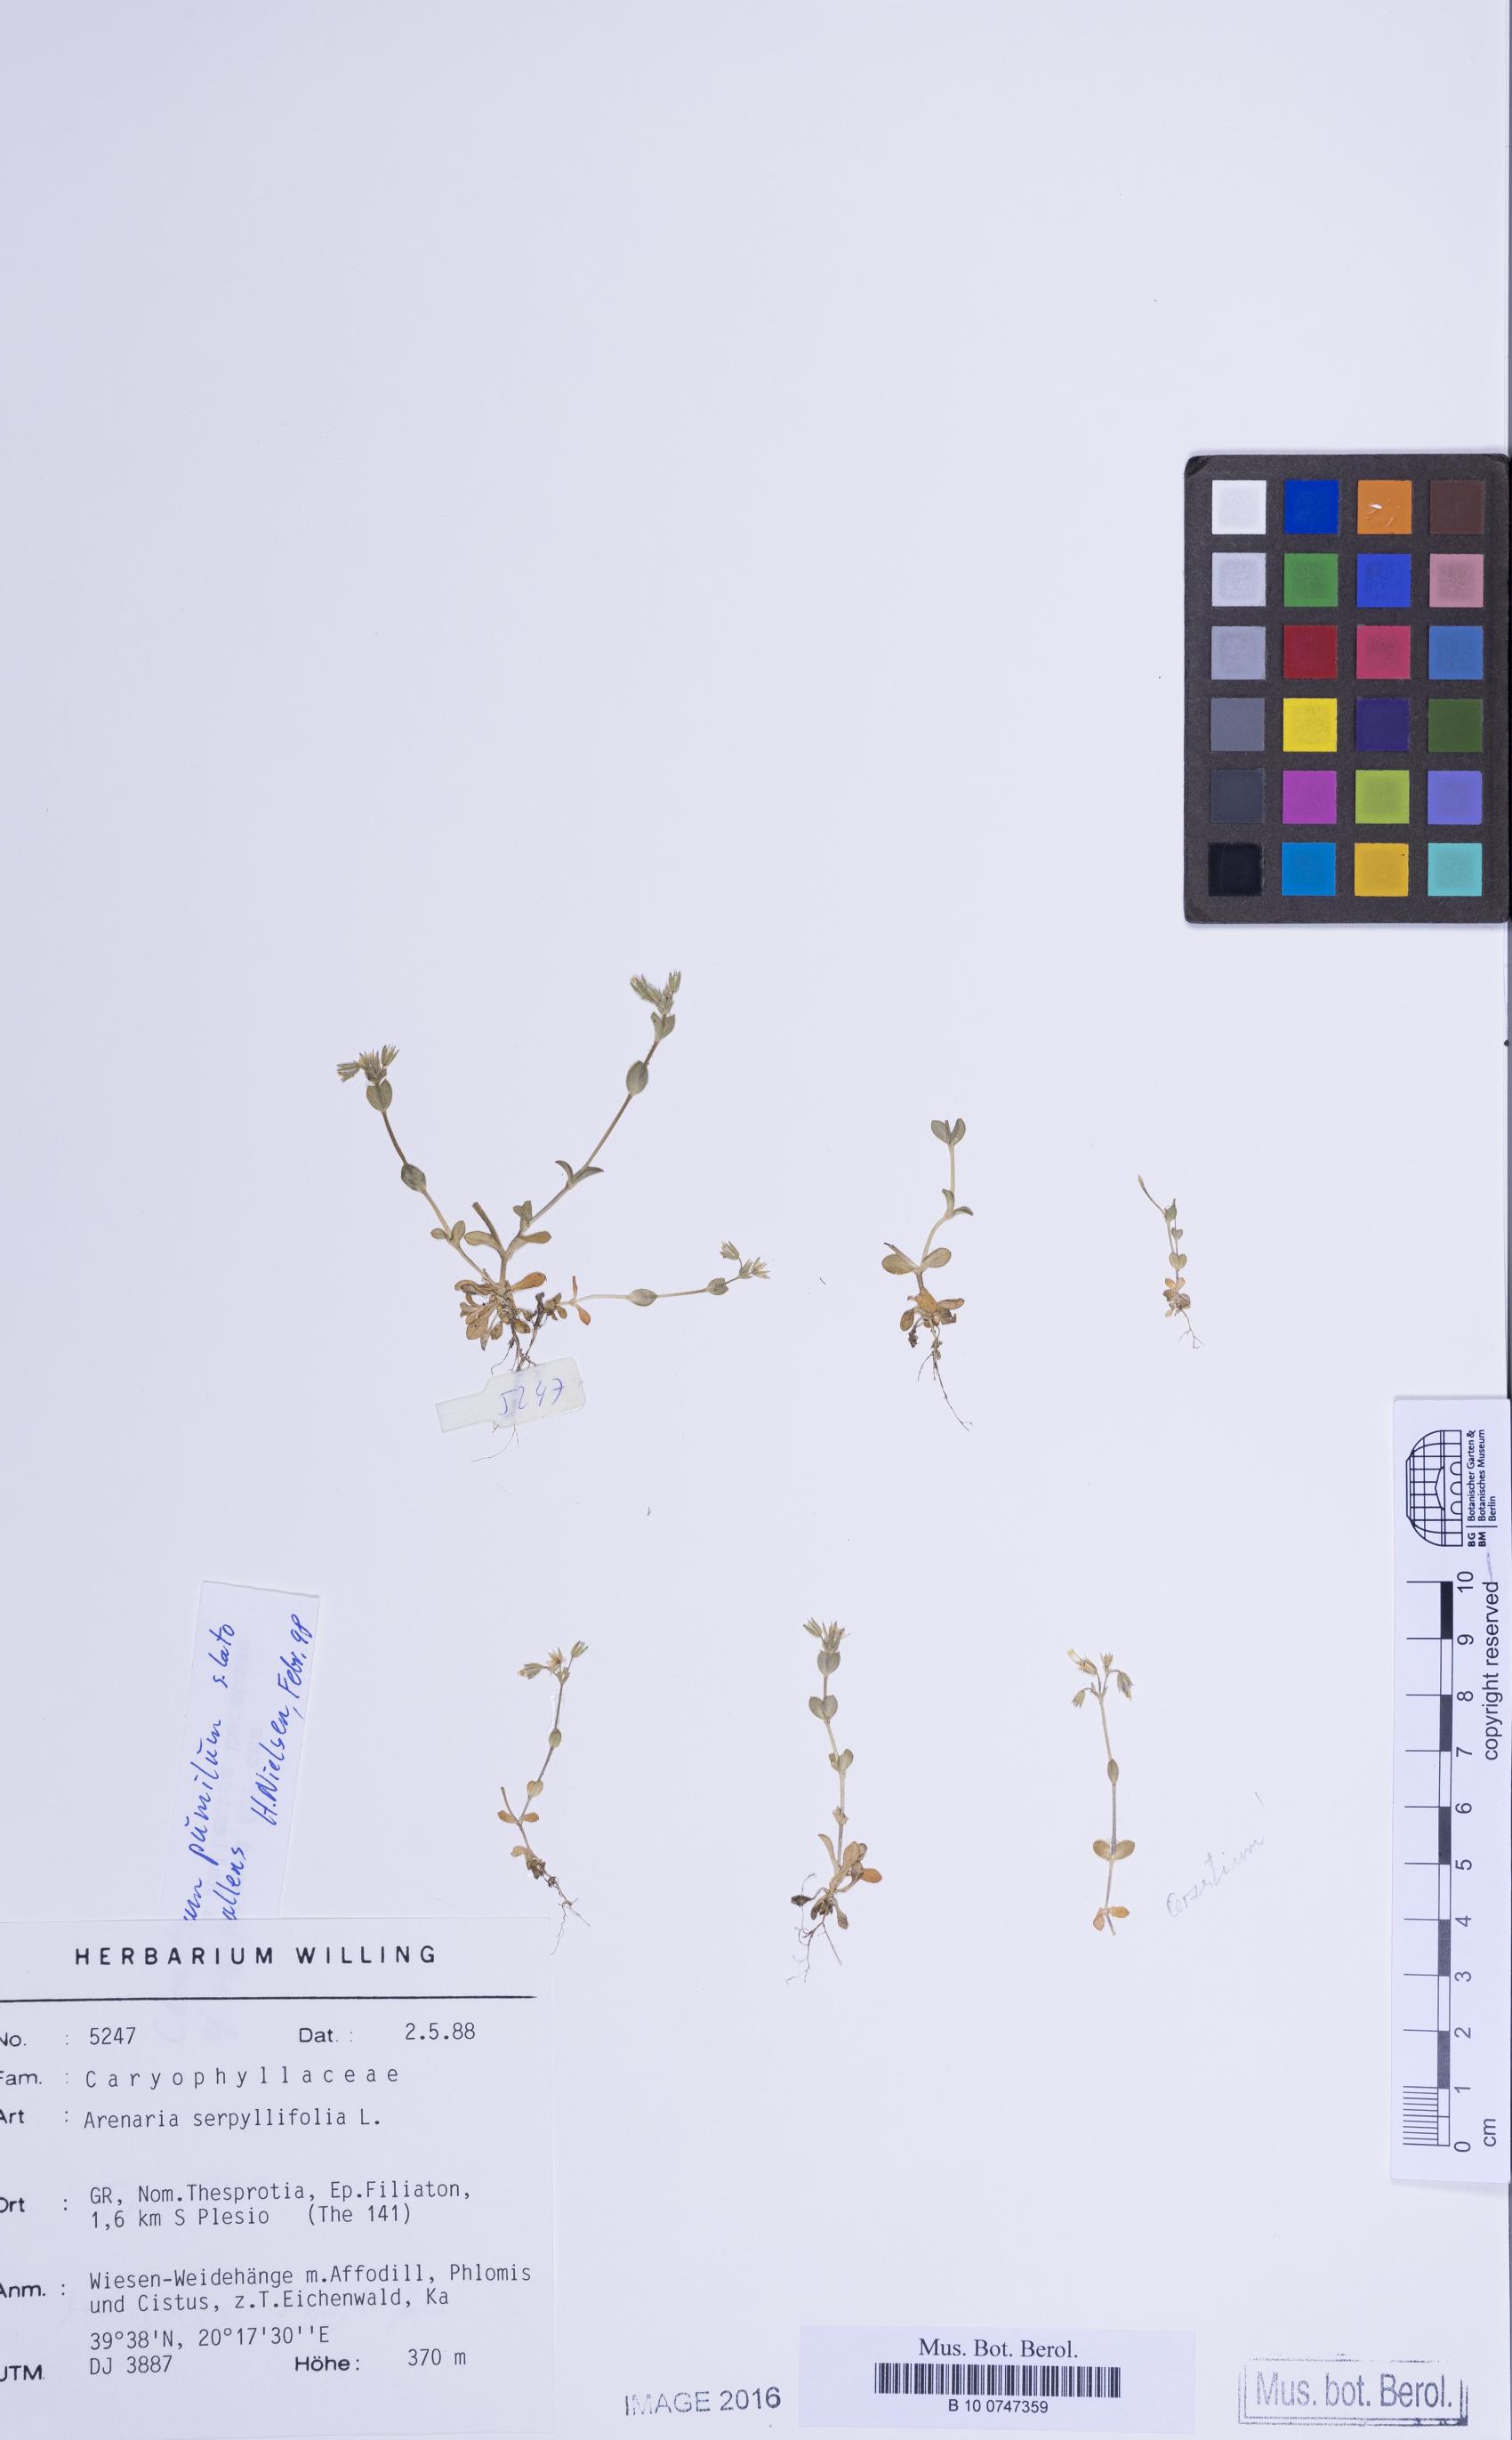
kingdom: Plantae
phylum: Tracheophyta
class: Magnoliopsida
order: Caryophyllales
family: Caryophyllaceae
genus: Cerastium
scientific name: Cerastium glutinosum
